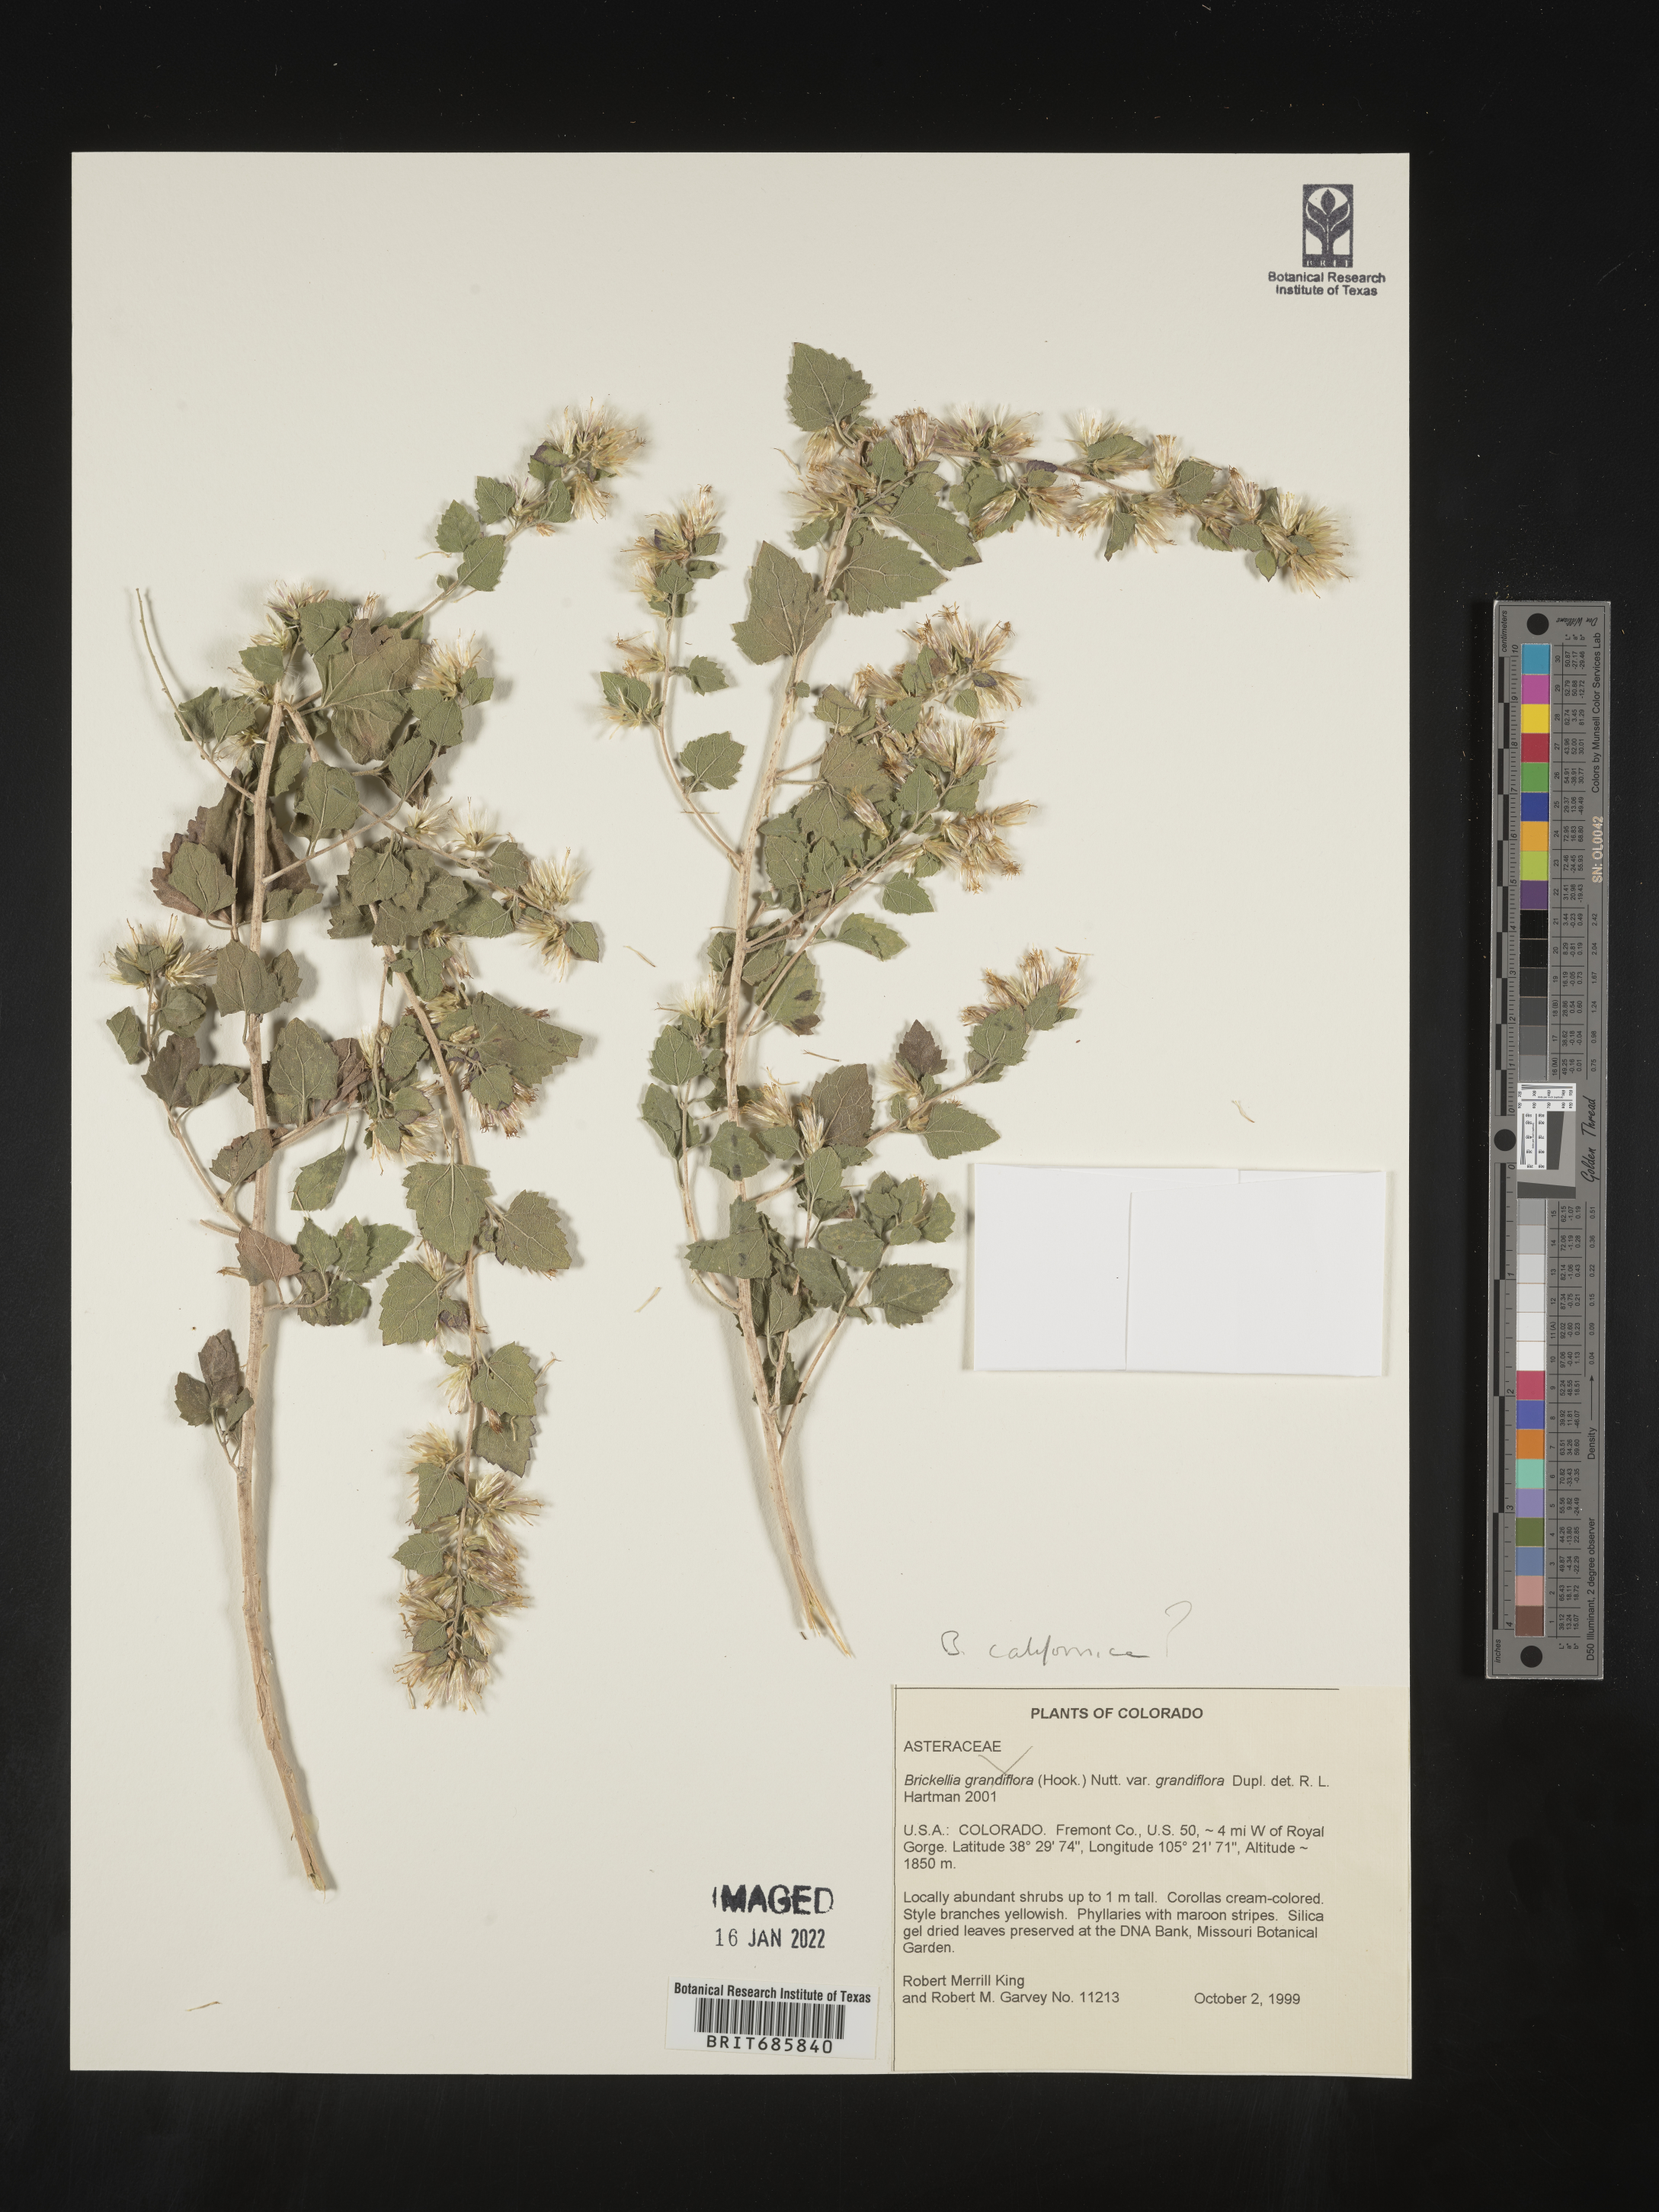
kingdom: Plantae
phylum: Tracheophyta
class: Magnoliopsida
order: Asterales
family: Asteraceae
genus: Brickellia
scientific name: Brickellia californica
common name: California brickellbush
